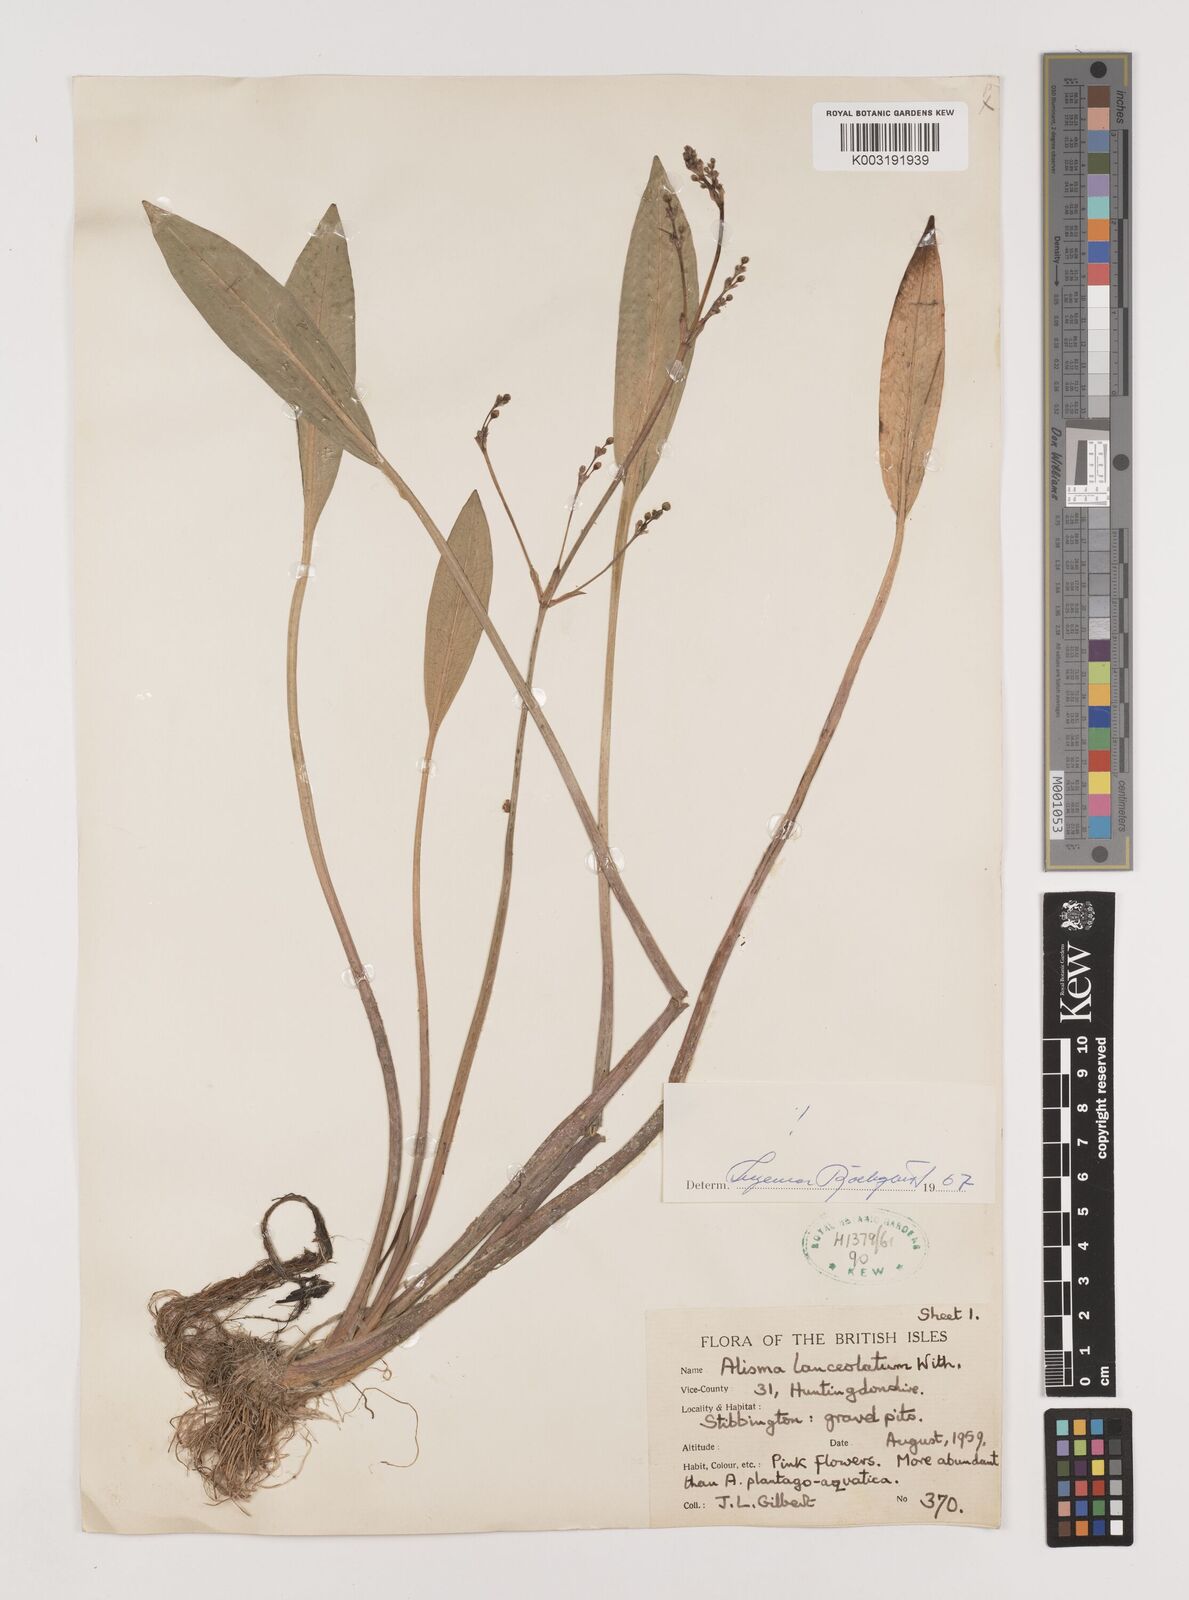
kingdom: Plantae
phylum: Tracheophyta
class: Liliopsida
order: Alismatales
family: Alismataceae
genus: Alisma
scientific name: Alisma lanceolatum
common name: Narrow-leaved water-plantain
